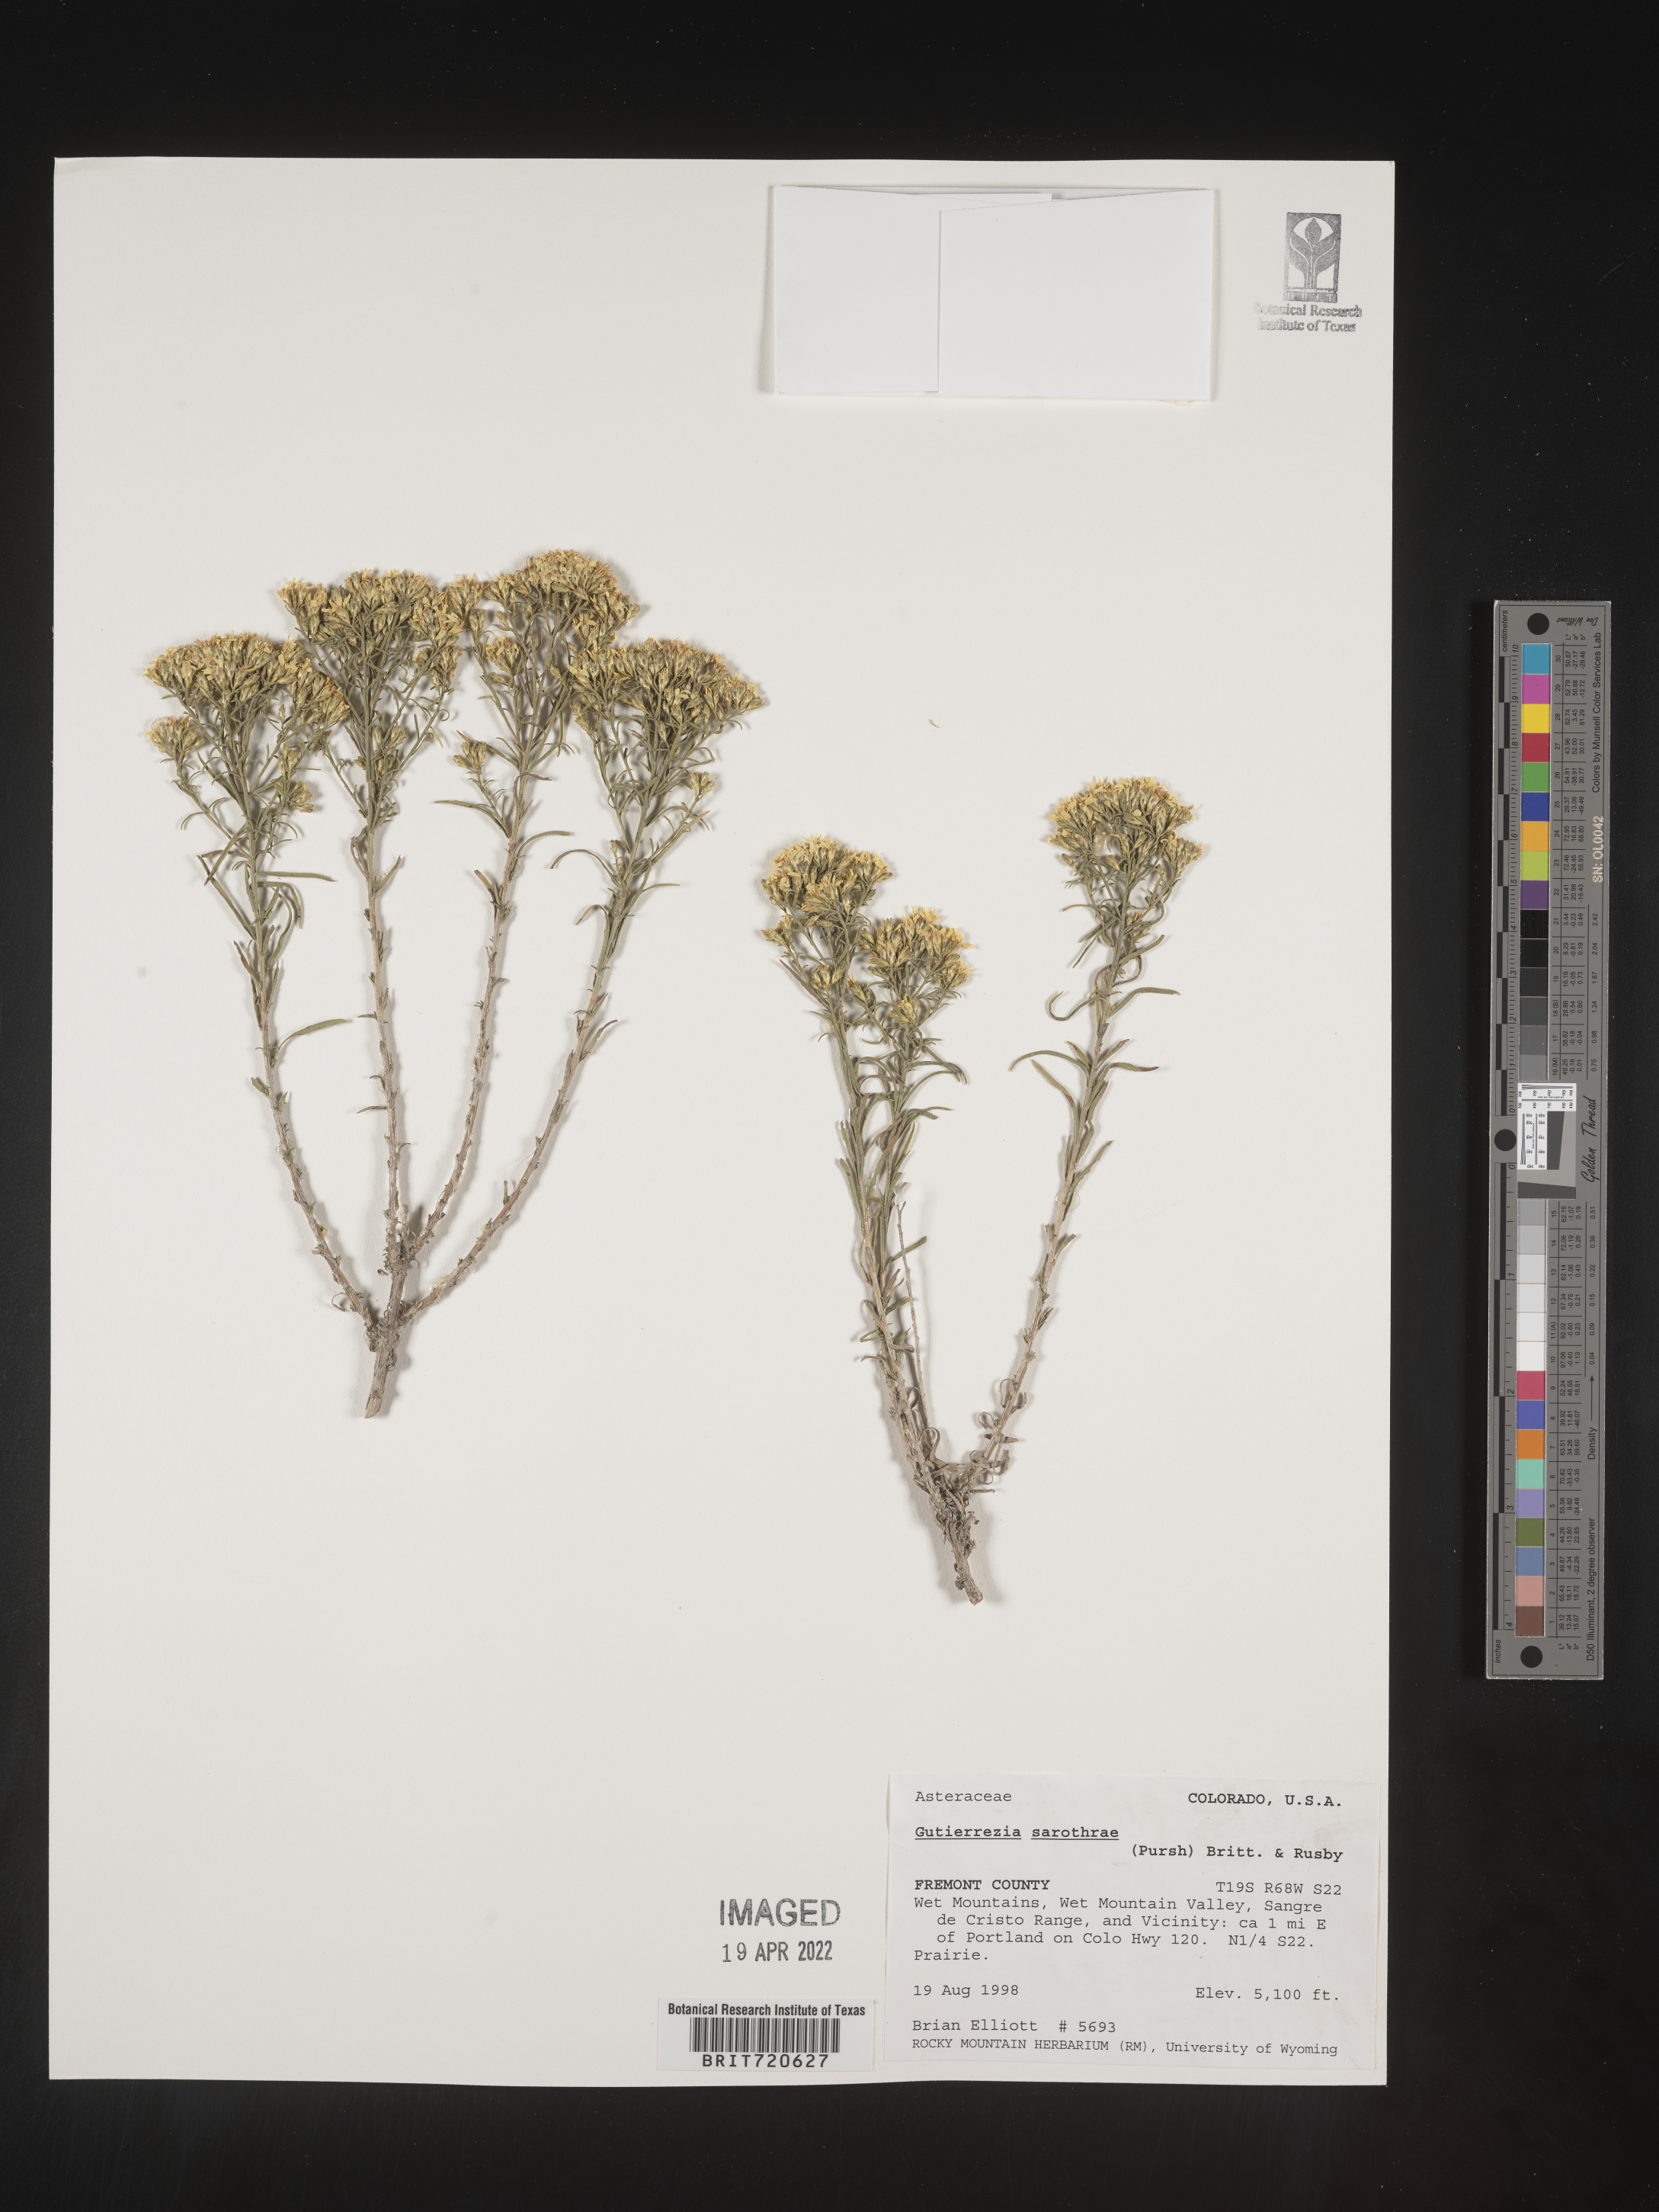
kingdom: Plantae
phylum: Tracheophyta
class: Magnoliopsida
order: Asterales
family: Asteraceae
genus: Gutierrezia
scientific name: Gutierrezia sarothrae
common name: Broom snakeweed
